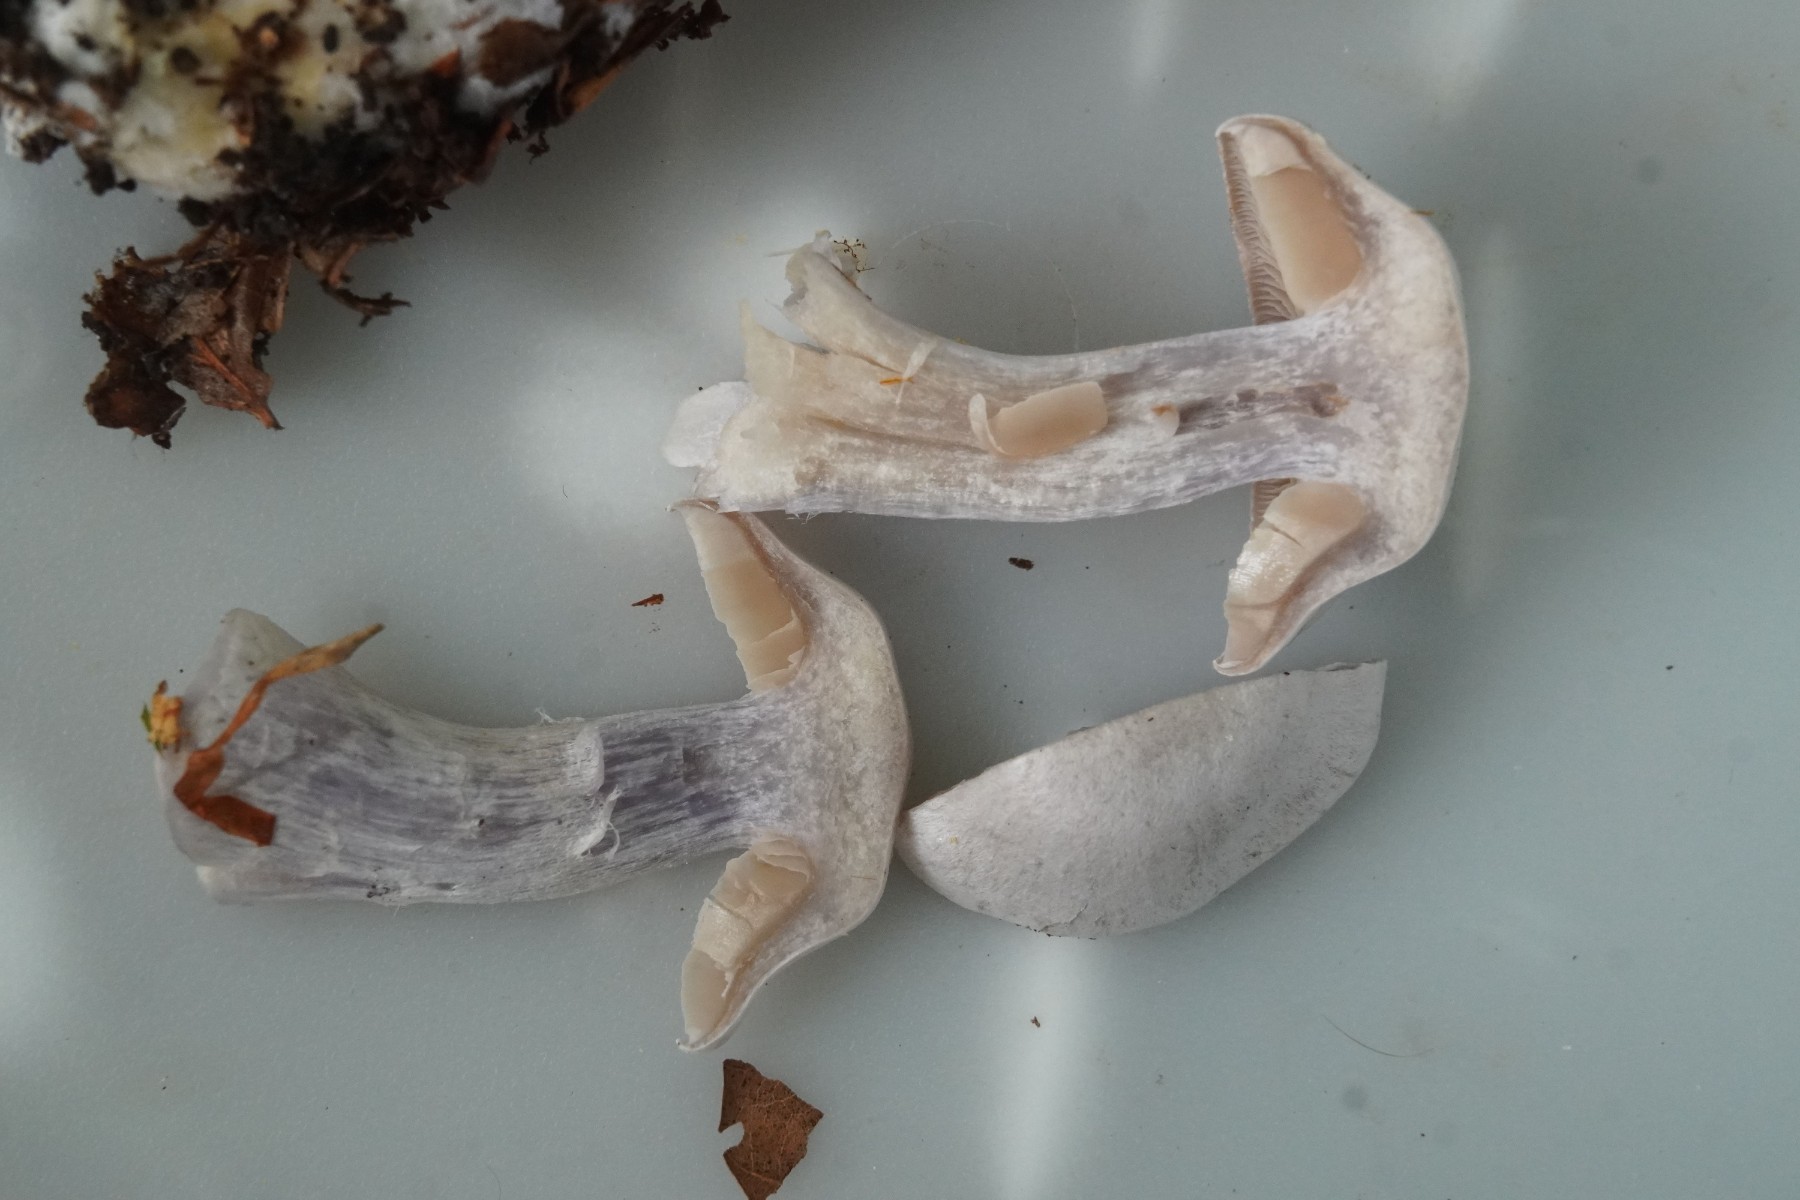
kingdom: Fungi
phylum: Basidiomycota
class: Agaricomycetes
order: Agaricales
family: Cortinariaceae
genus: Cortinarius
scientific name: Cortinarius alboviolaceus
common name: lysviolet slørhat
